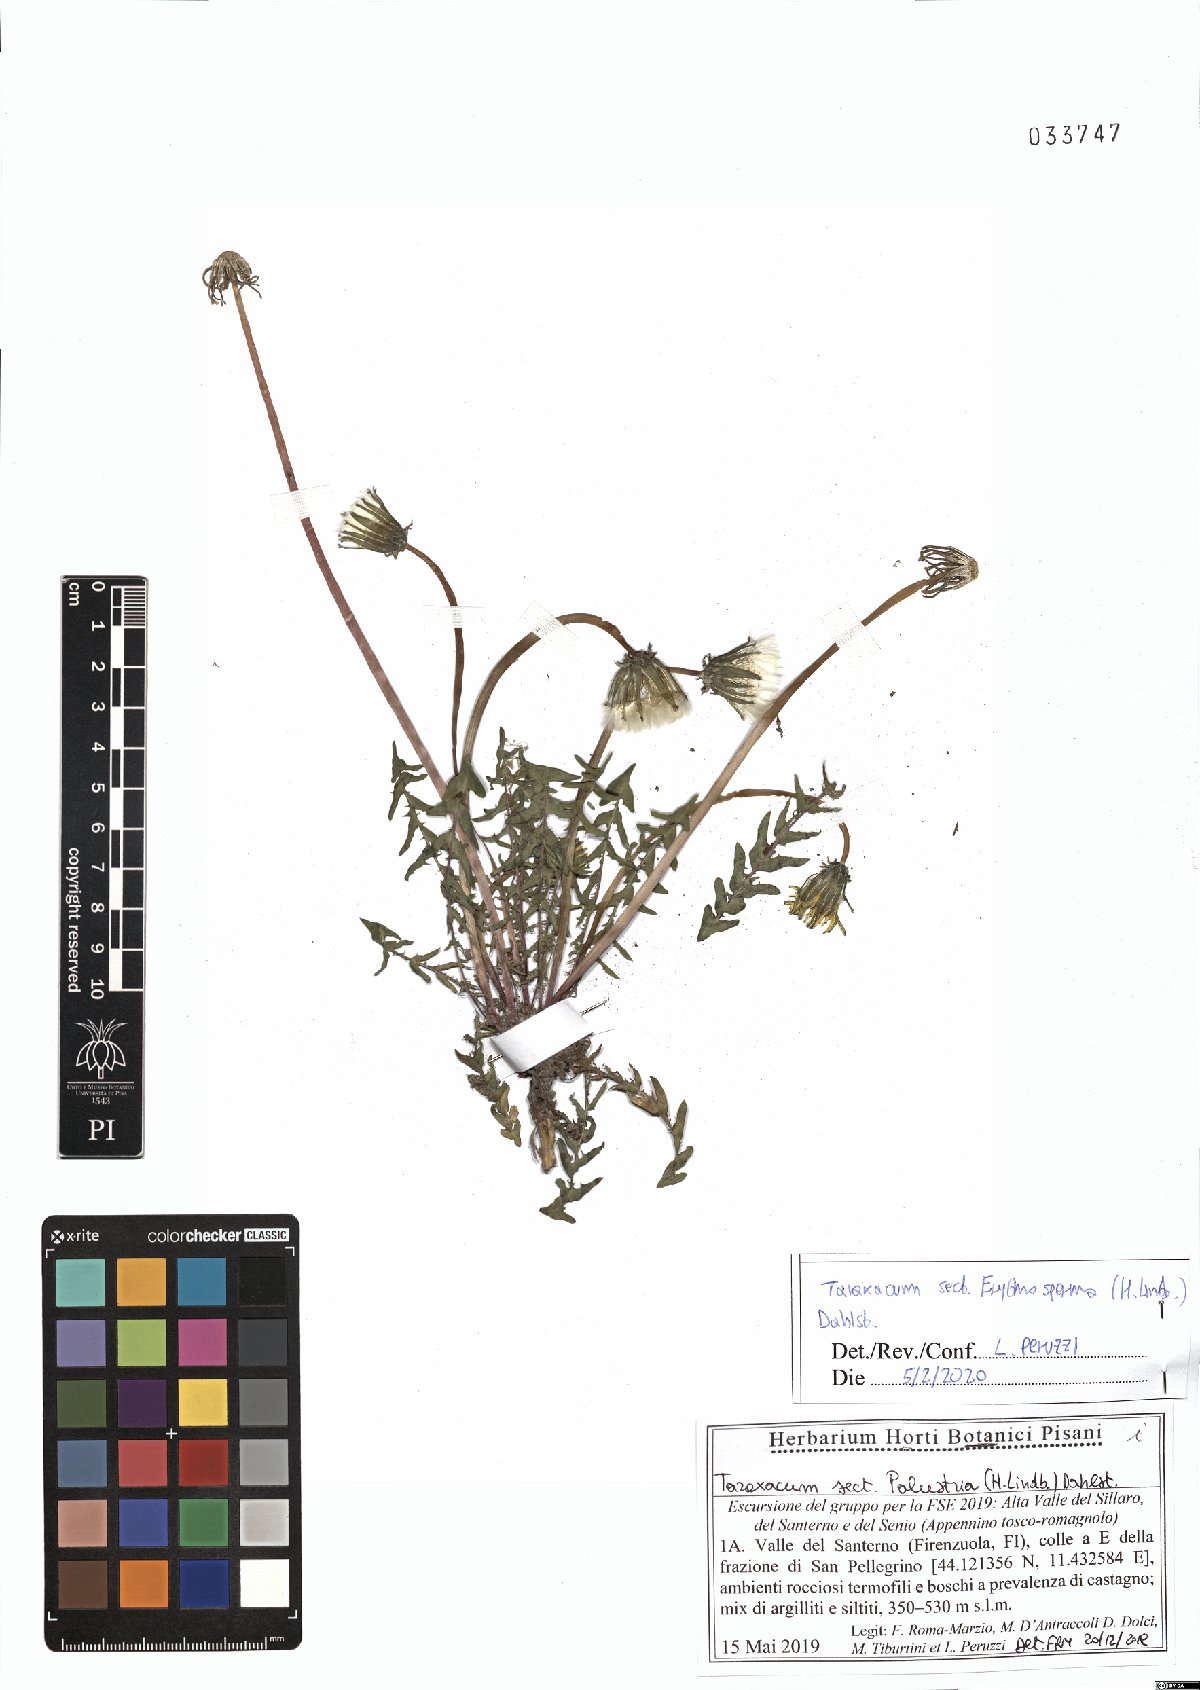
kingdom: Plantae
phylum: Tracheophyta
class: Magnoliopsida
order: Asterales
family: Asteraceae
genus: Taraxacum
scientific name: Taraxacum erythrospermum
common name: Rock dandelion
